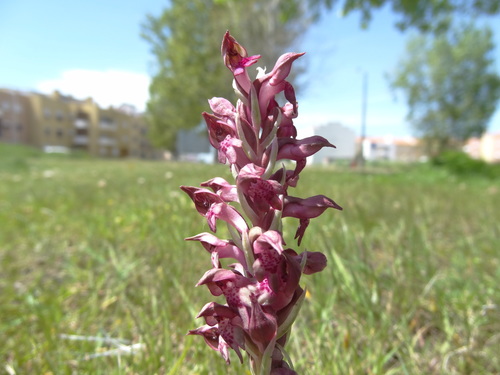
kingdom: Plantae
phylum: Tracheophyta
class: Liliopsida
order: Asparagales
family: Orchidaceae
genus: Anacamptis
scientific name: Anacamptis coriophora
